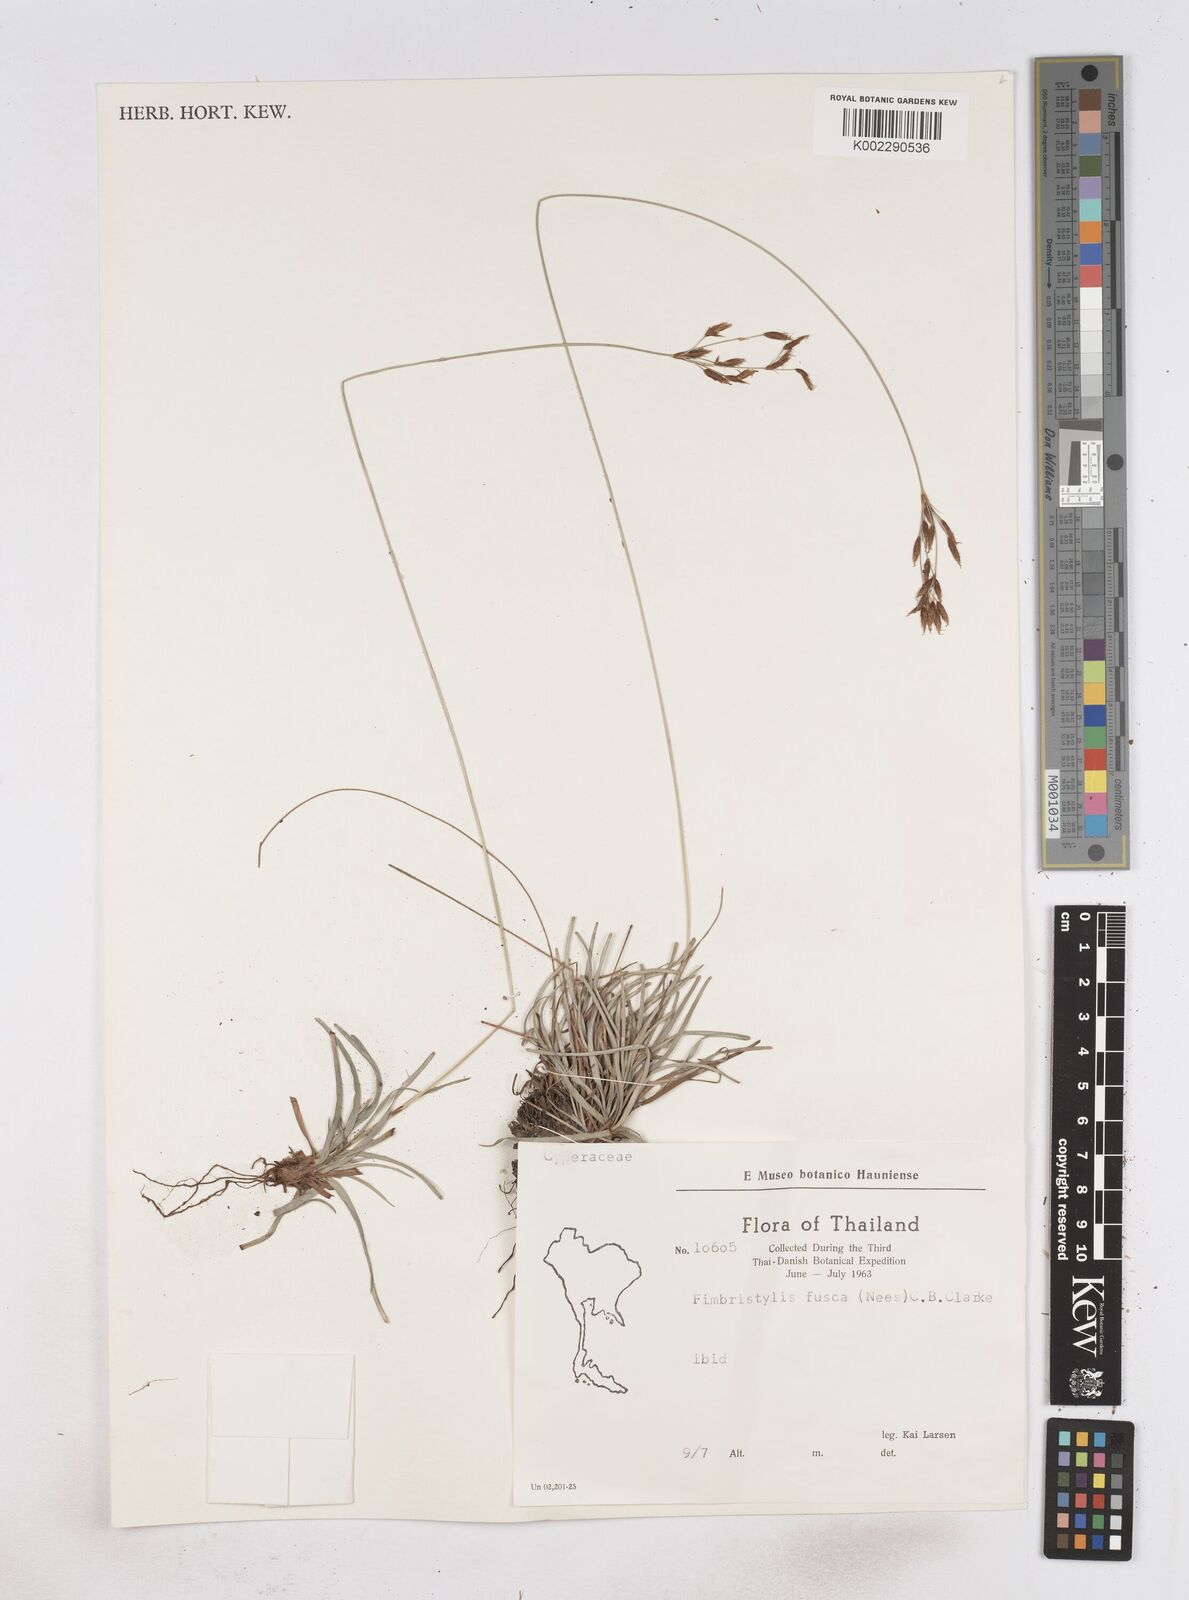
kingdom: Plantae
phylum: Tracheophyta
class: Liliopsida
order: Poales
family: Cyperaceae
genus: Fimbristylis
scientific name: Fimbristylis fusca
